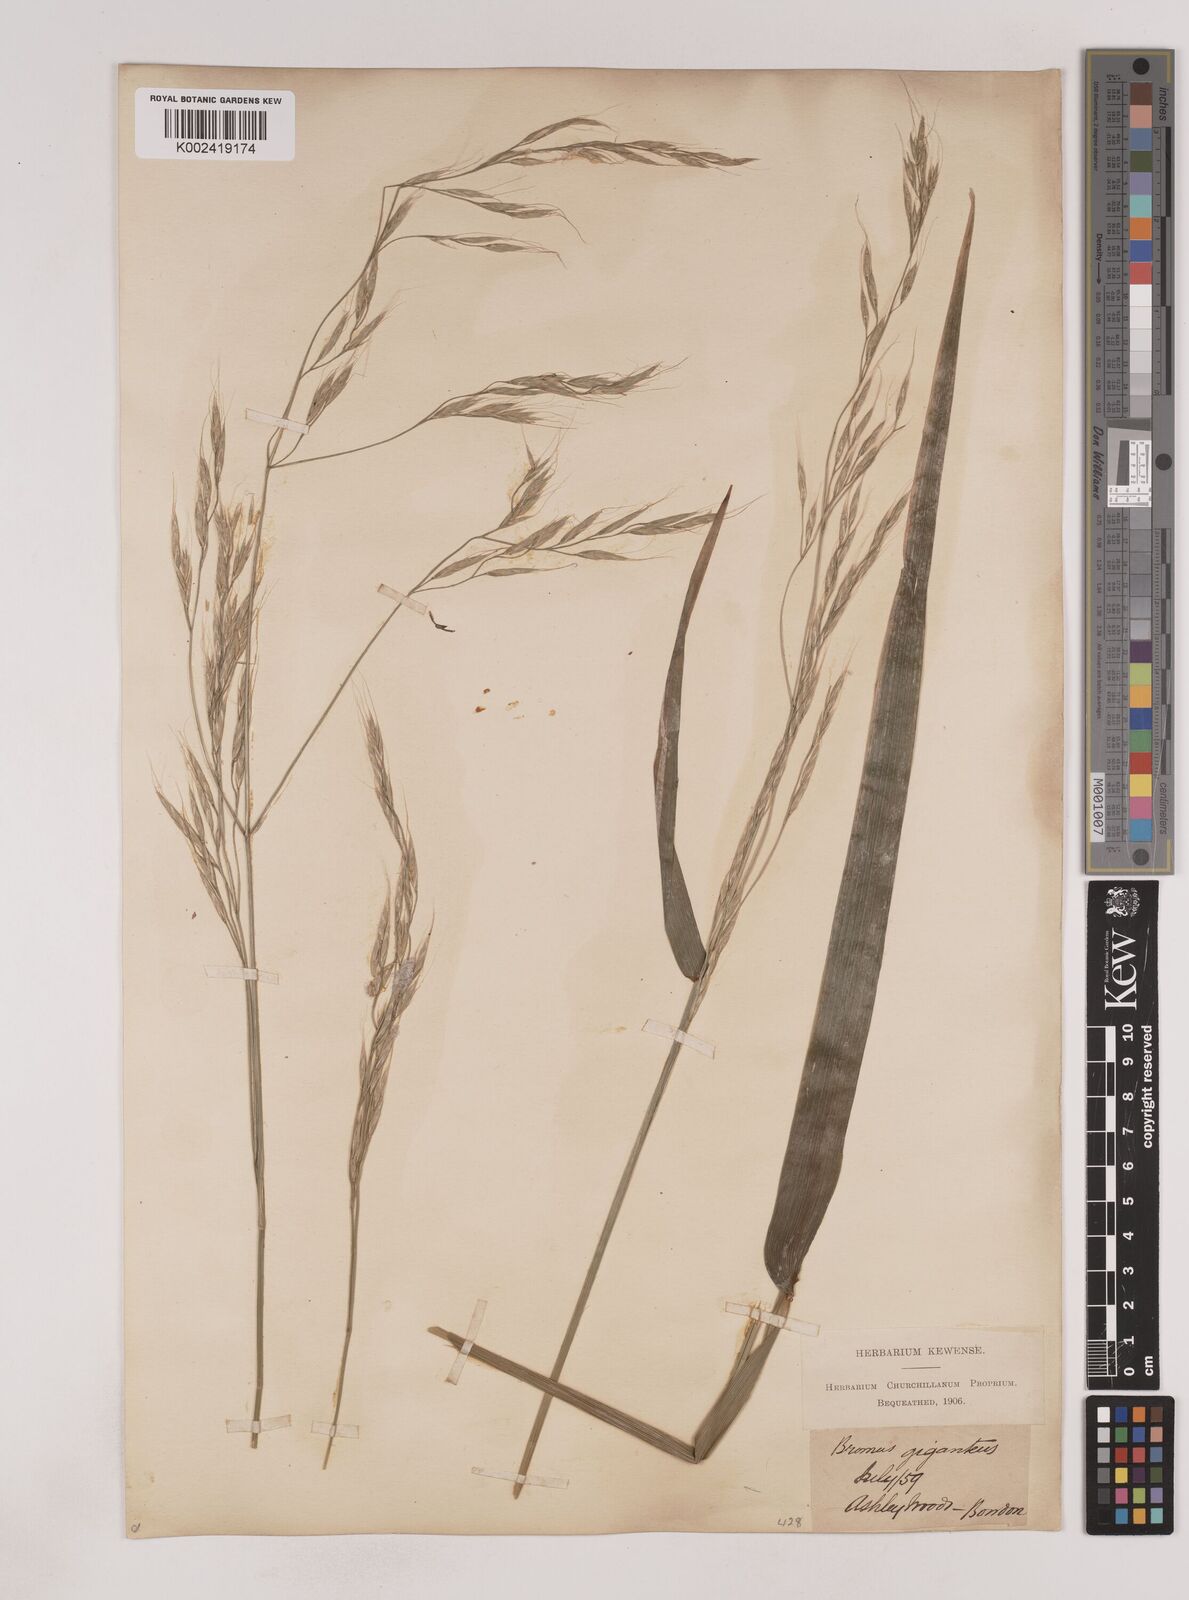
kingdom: Plantae
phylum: Tracheophyta
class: Liliopsida
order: Poales
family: Poaceae
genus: Lolium
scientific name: Lolium giganteum
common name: Giant fescue
